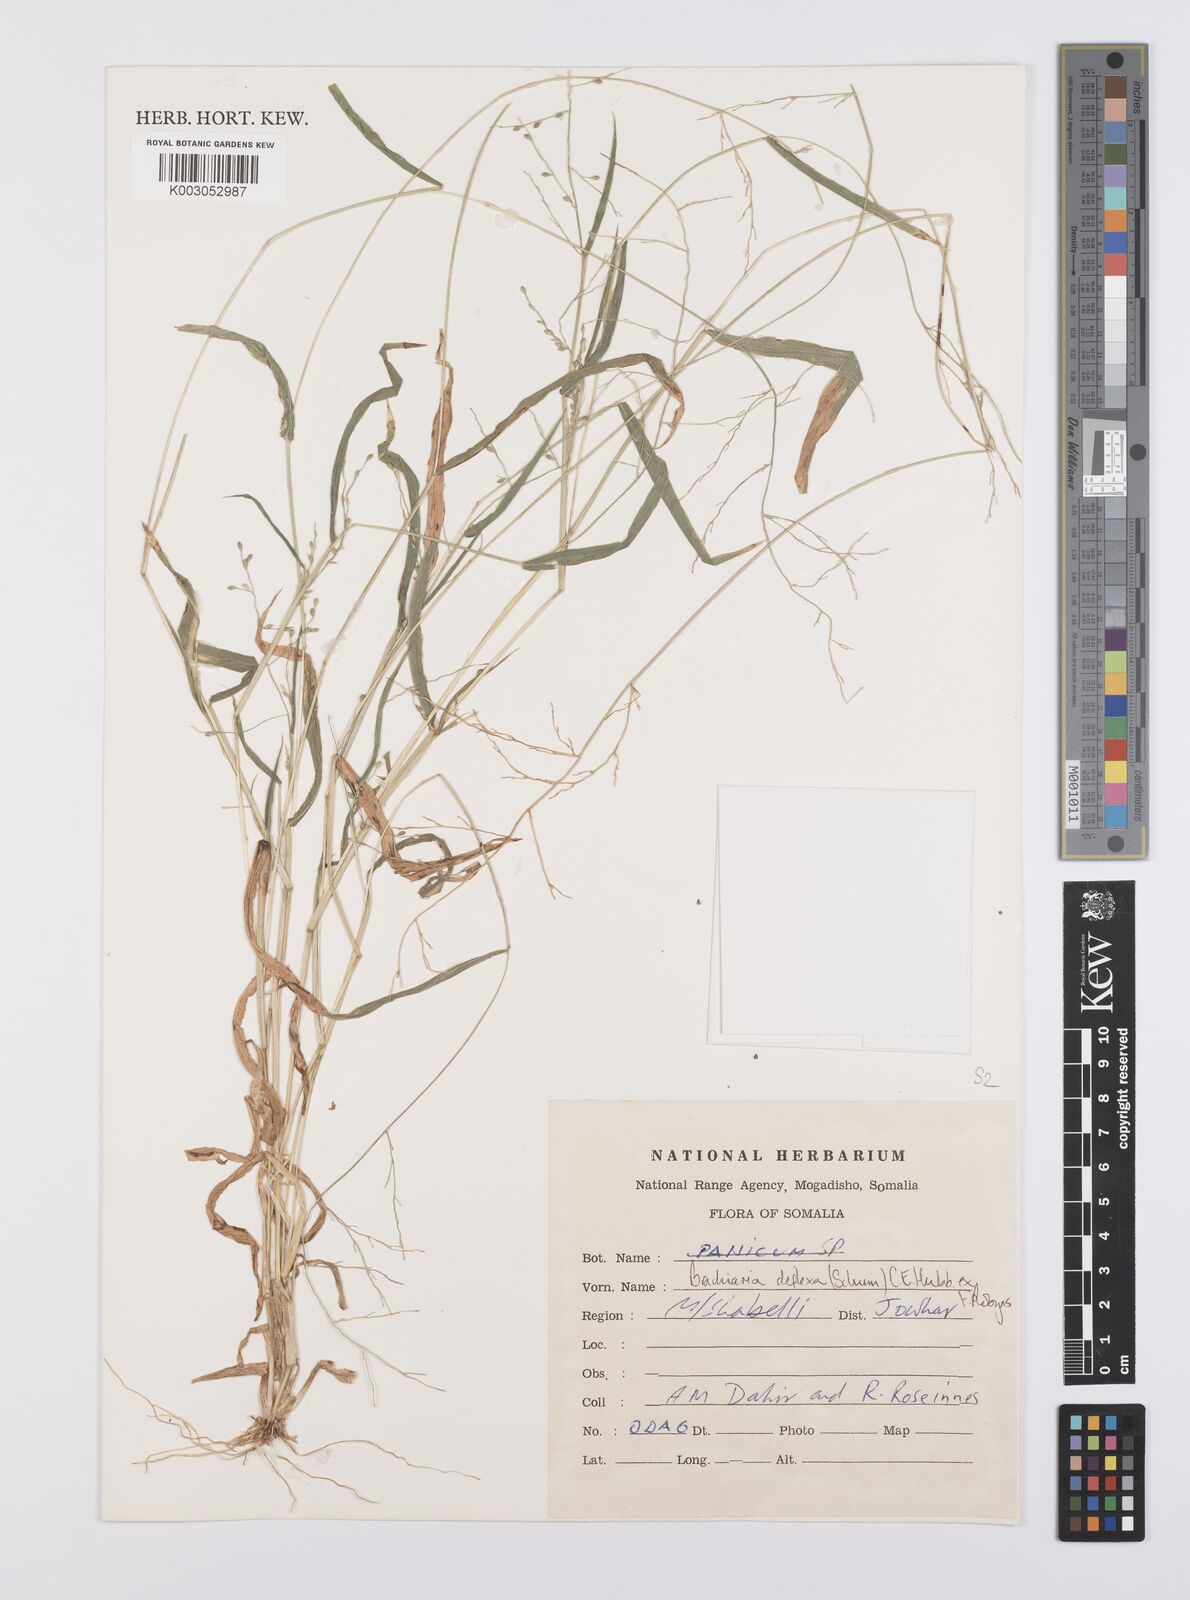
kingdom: Plantae
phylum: Tracheophyta
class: Liliopsida
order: Poales
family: Poaceae
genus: Urochloa
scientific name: Urochloa deflexa
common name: Guinea millet
